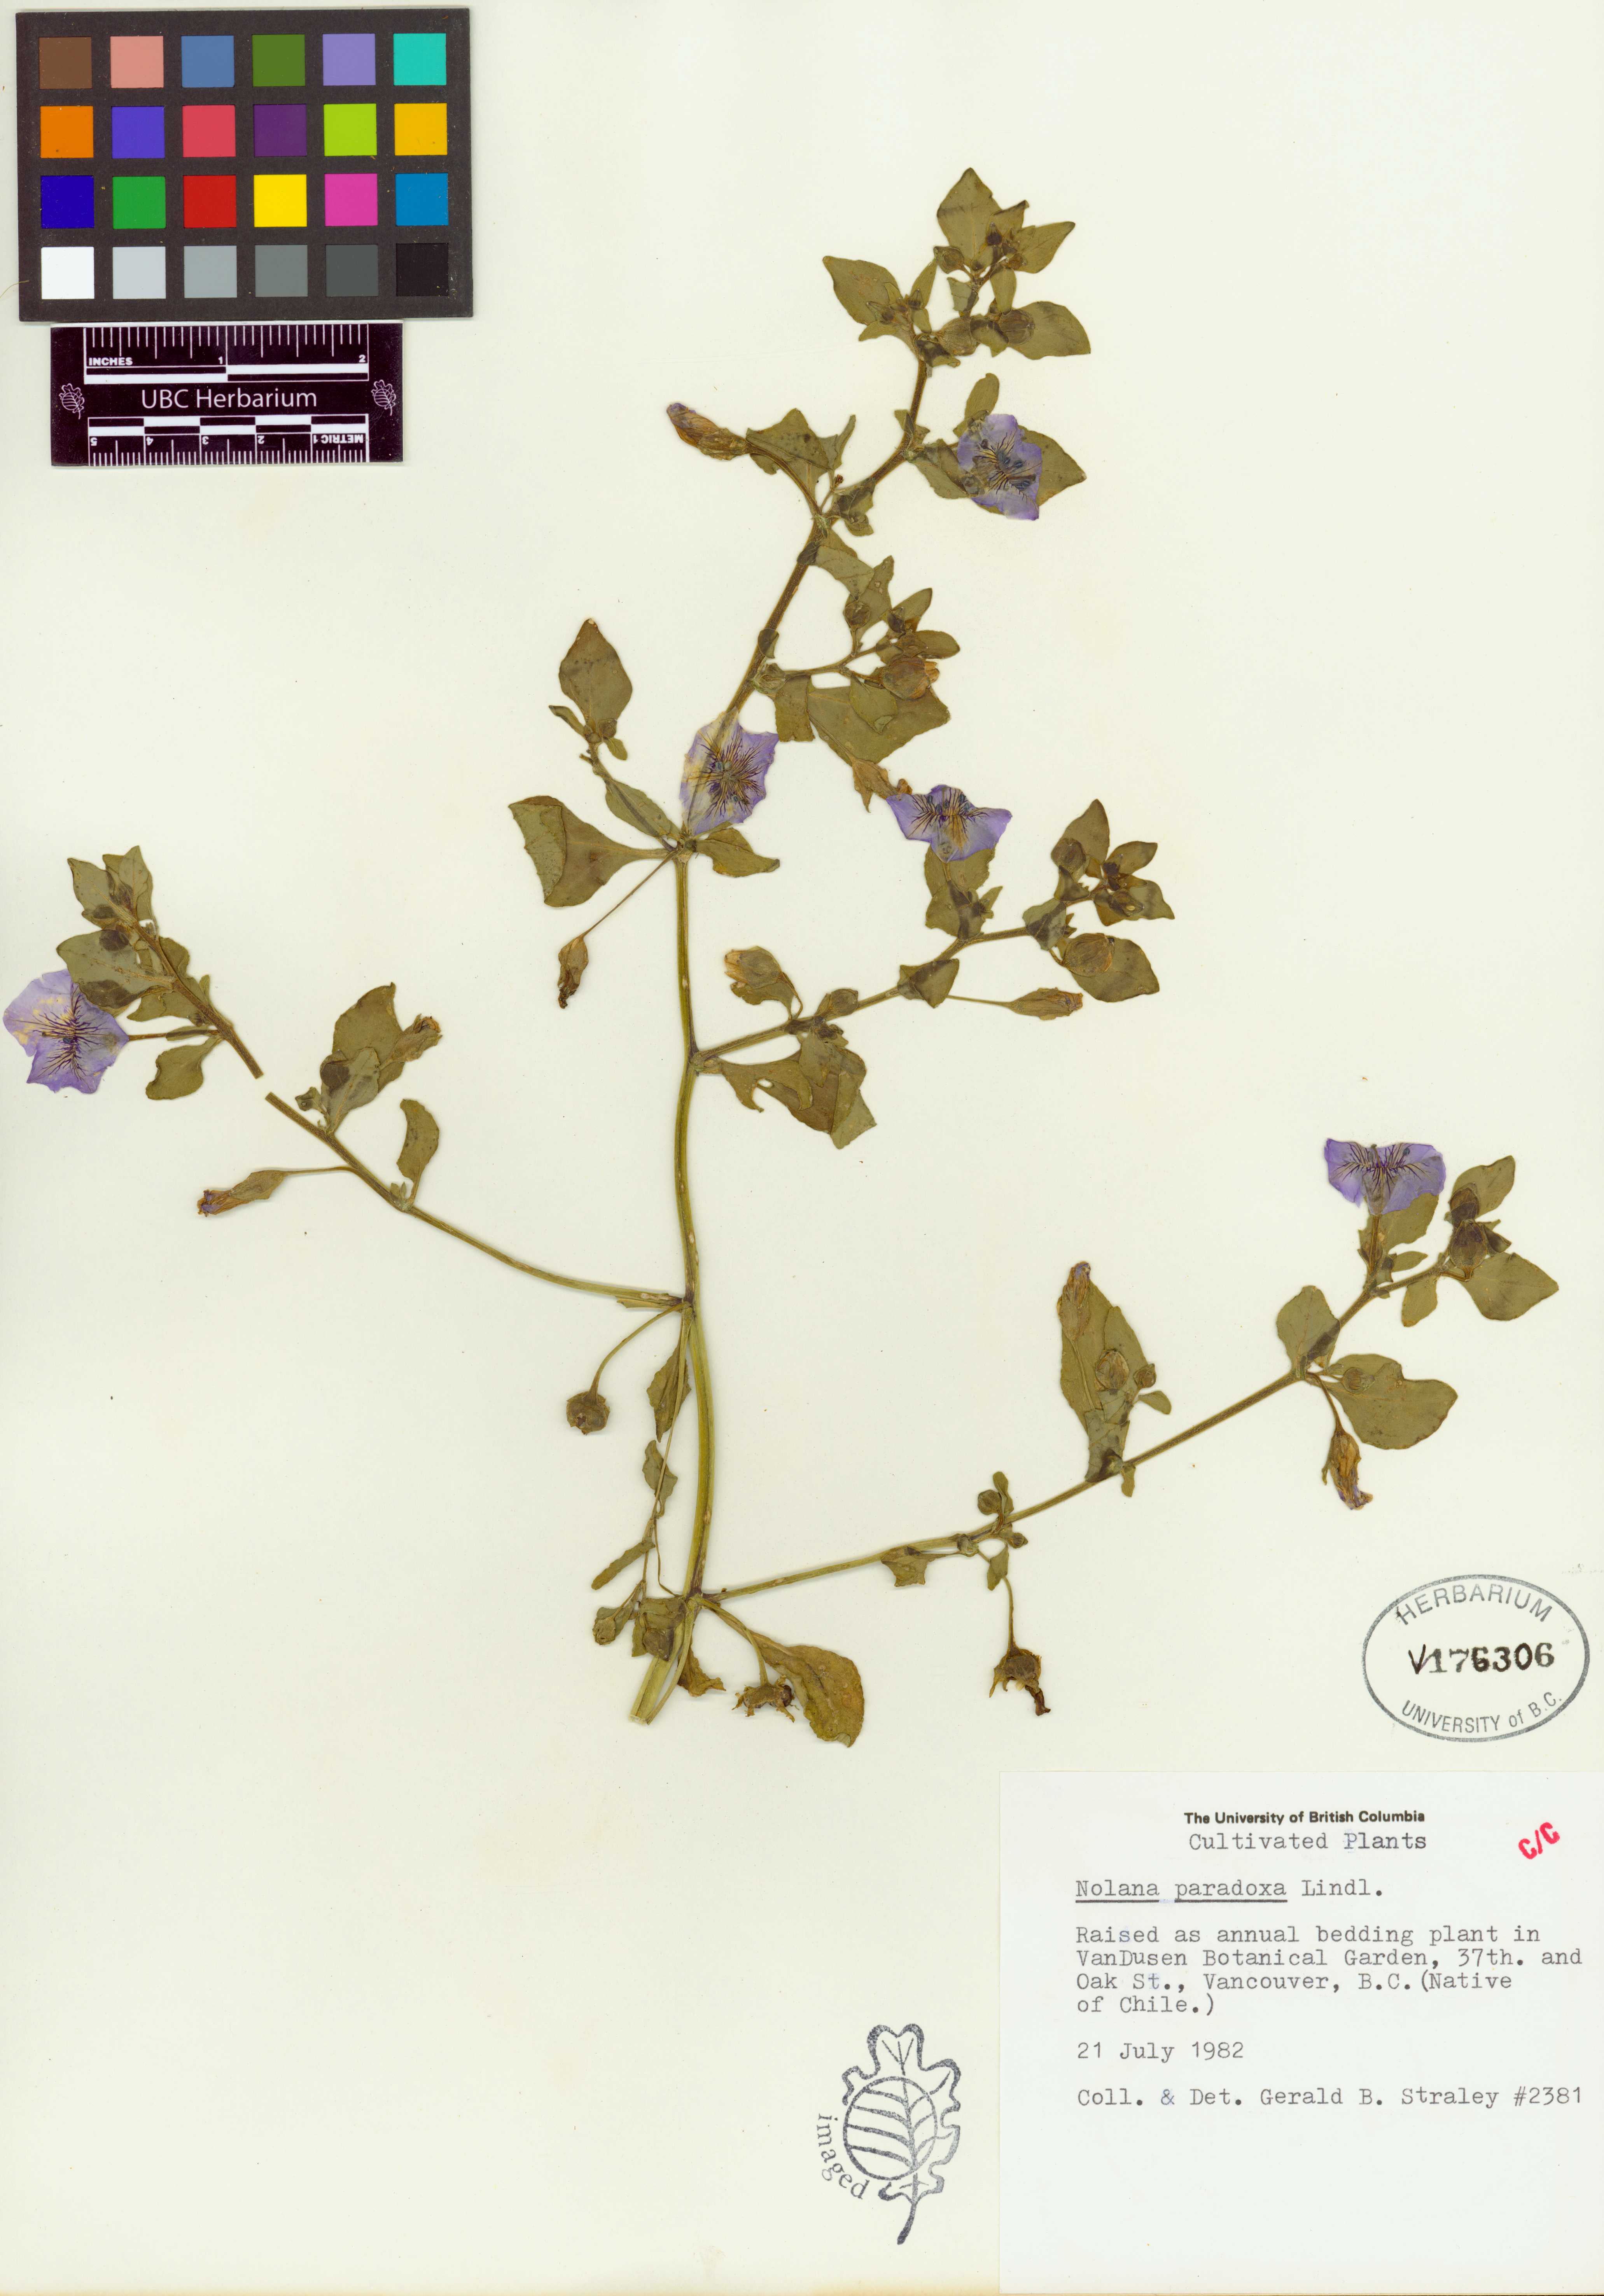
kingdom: Plantae
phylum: Tracheophyta
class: Magnoliopsida
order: Solanales
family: Solanaceae
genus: Nolana
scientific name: Nolana paradoxa
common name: Chilean-bellflower
